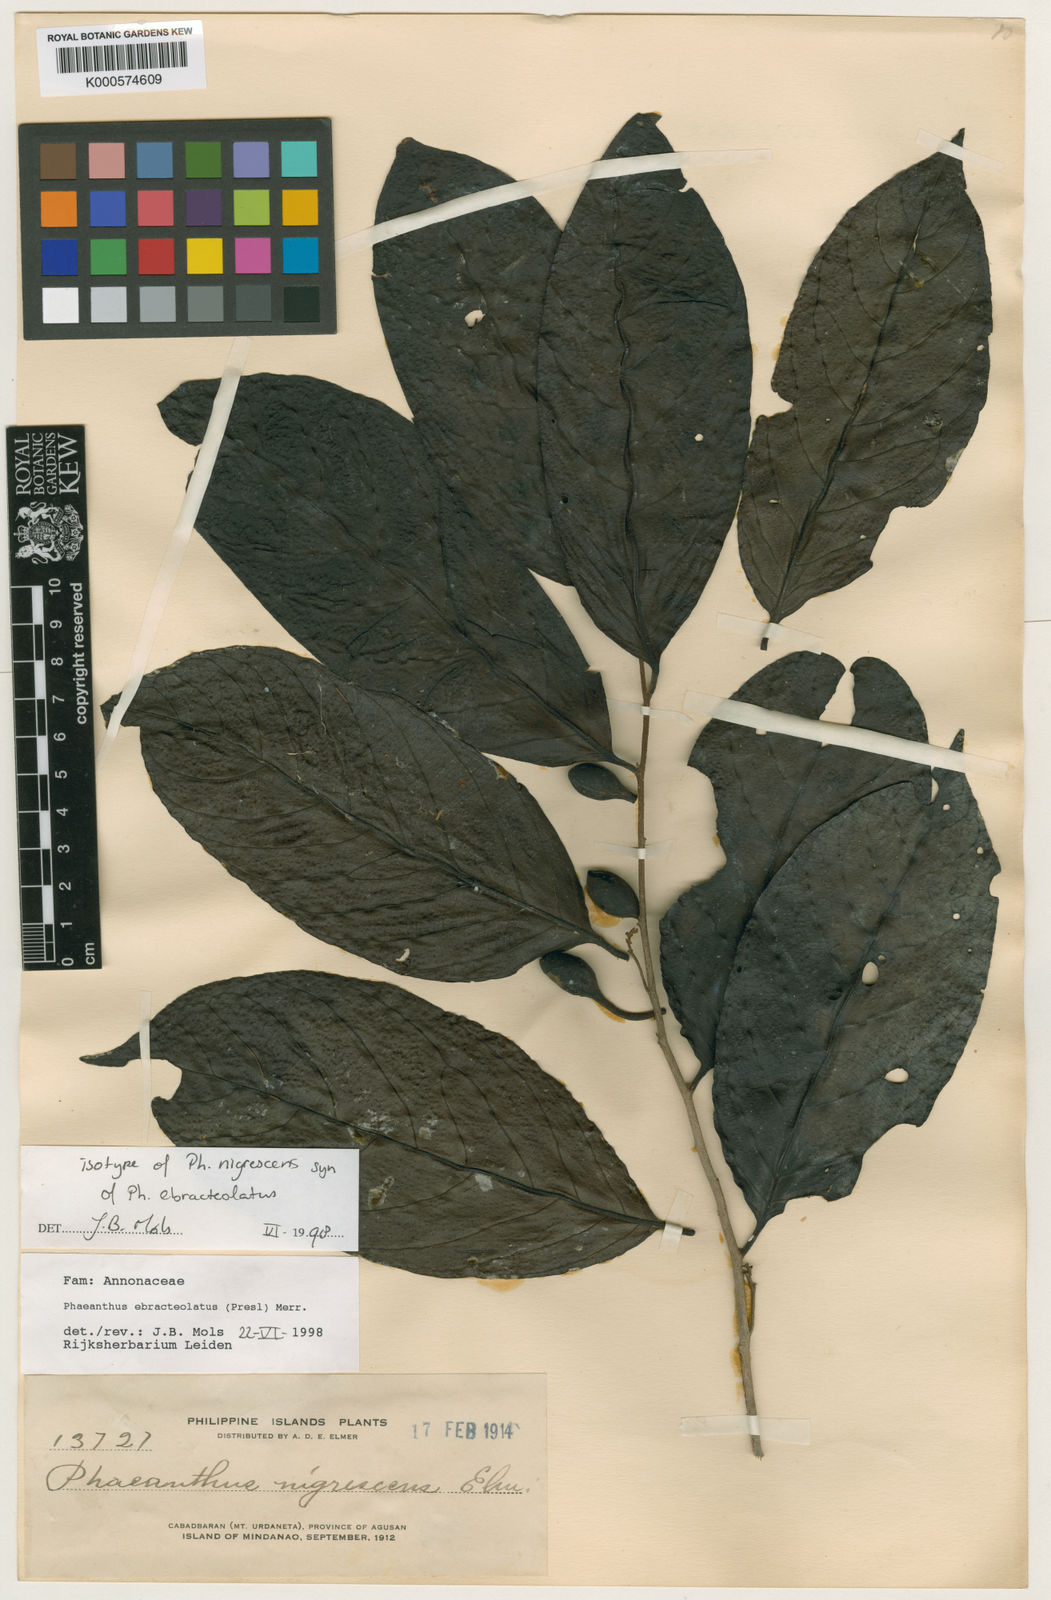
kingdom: Plantae
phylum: Tracheophyta
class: Magnoliopsida
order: Magnoliales
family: Annonaceae
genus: Phaeanthus
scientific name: Phaeanthus ophthalmicus
